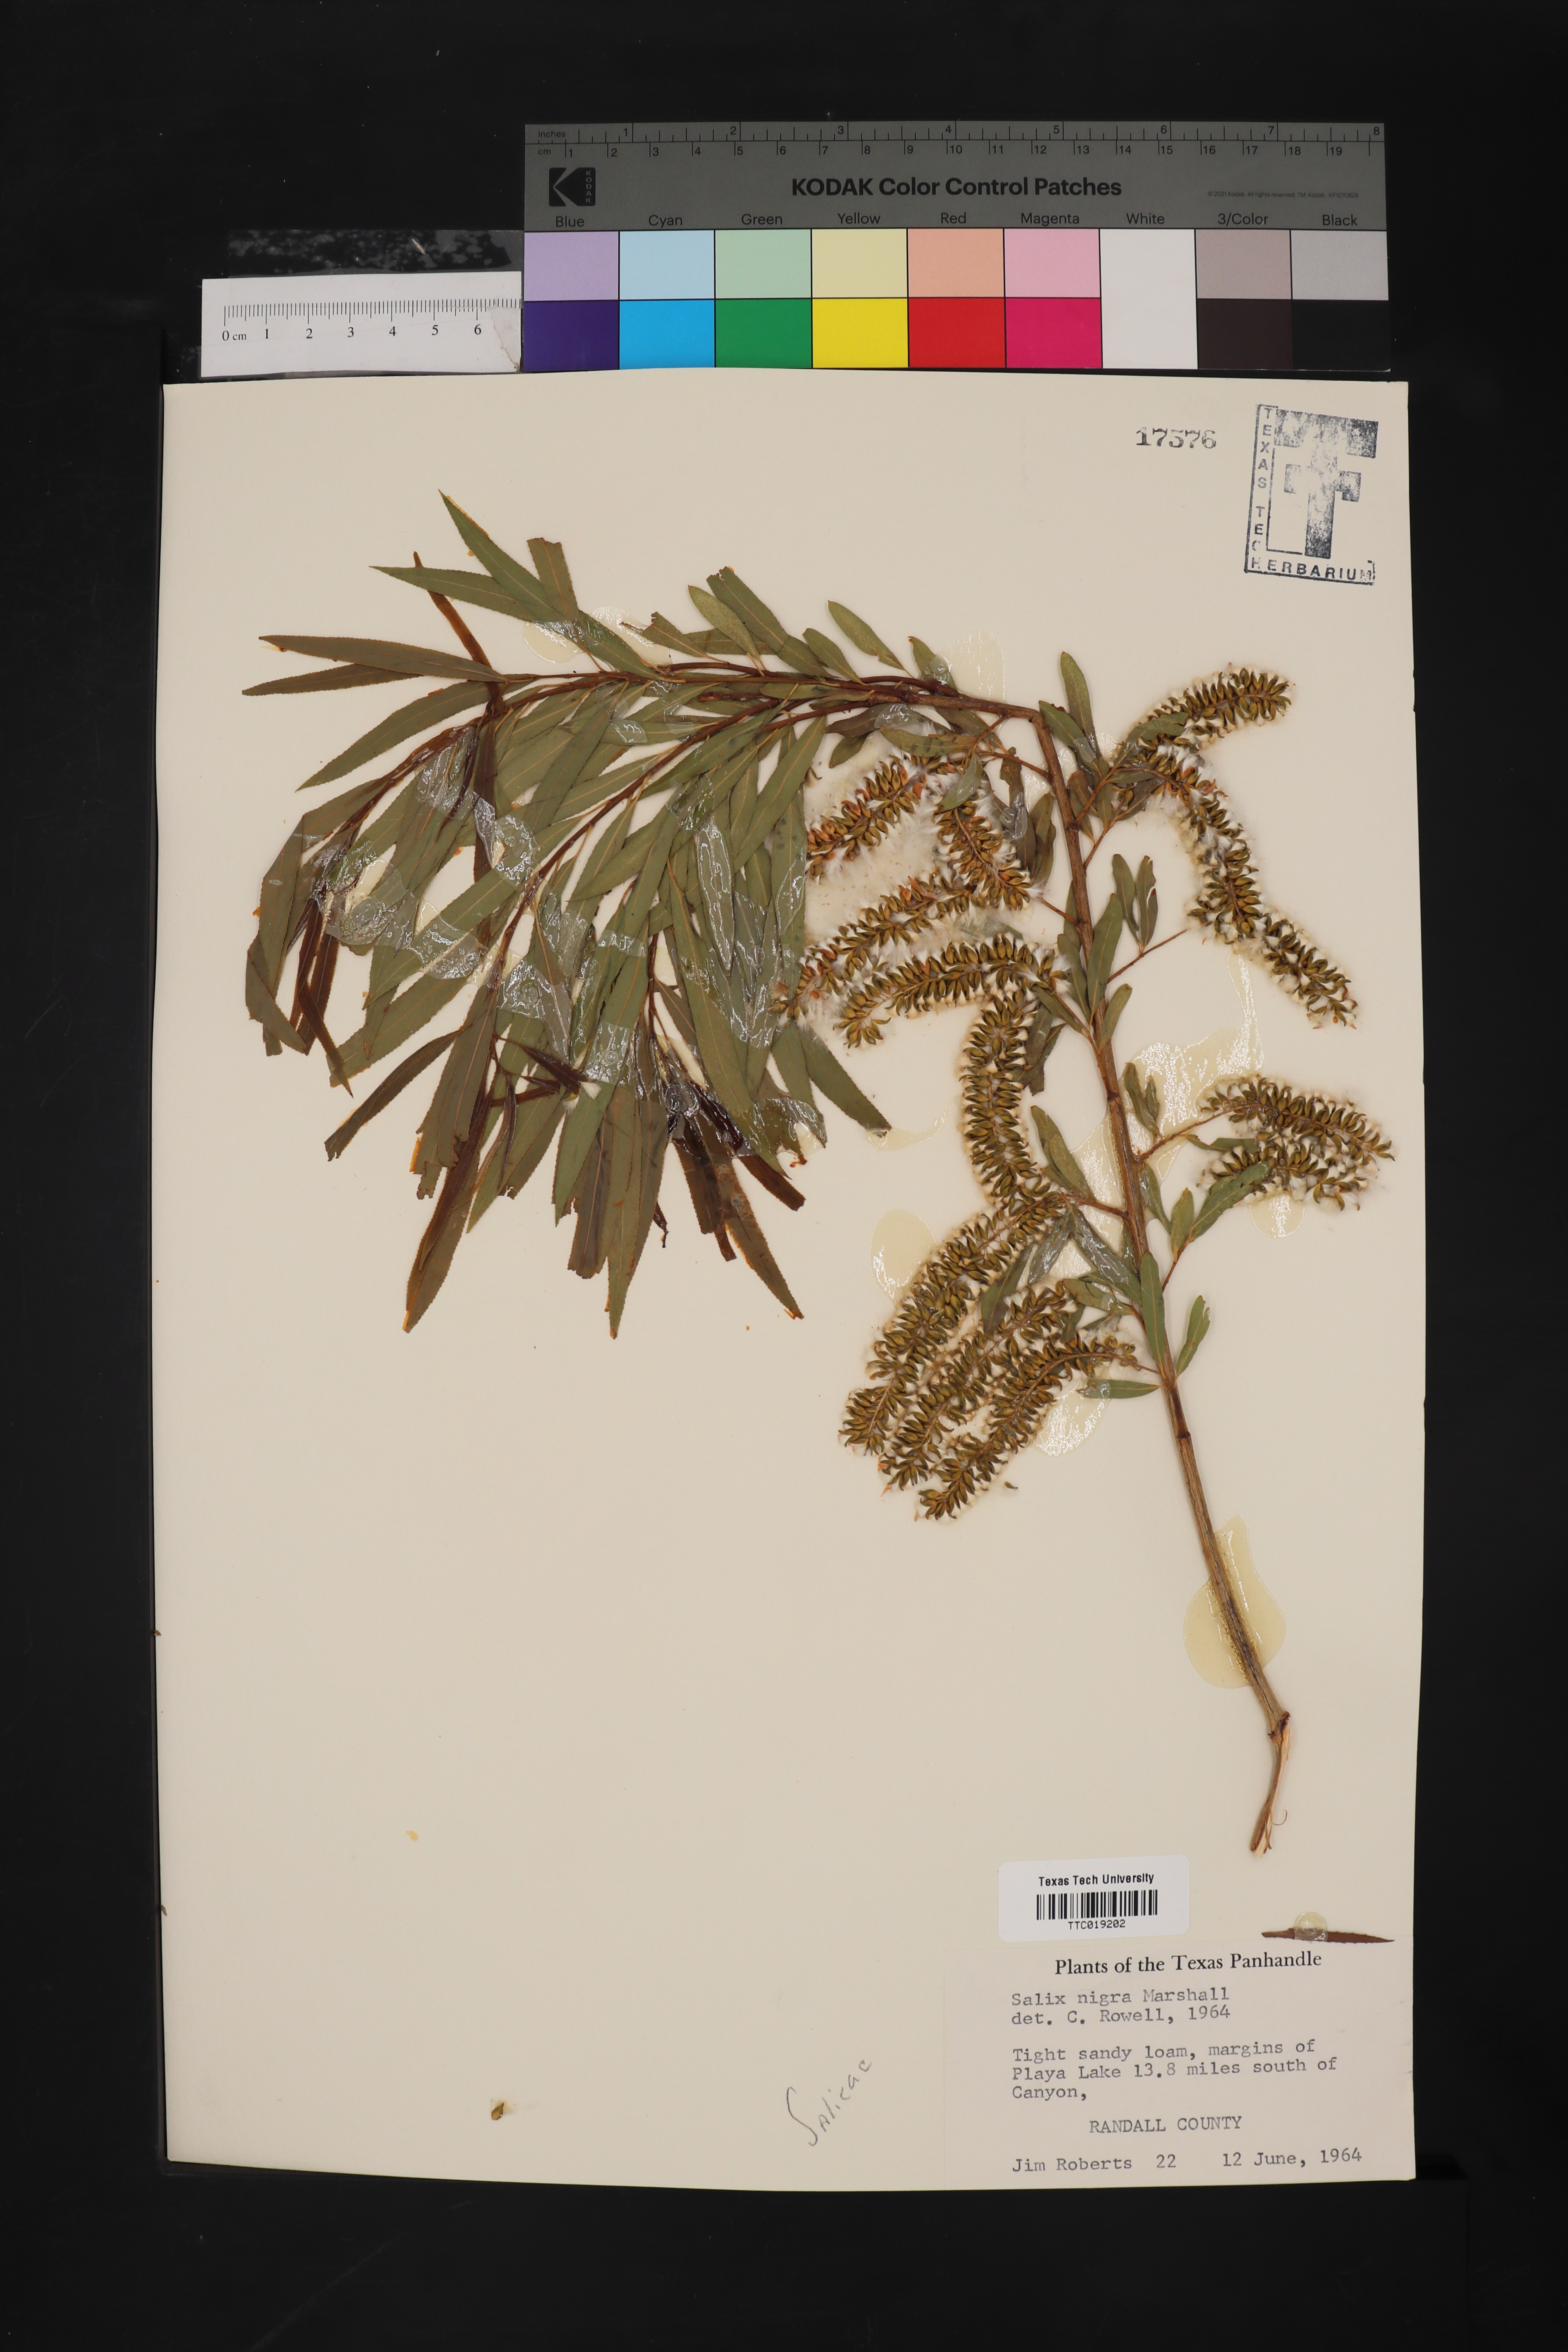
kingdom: Plantae
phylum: Tracheophyta
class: Magnoliopsida
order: Malpighiales
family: Salicaceae
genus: Salix
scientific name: Salix nigra
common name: Black willow
